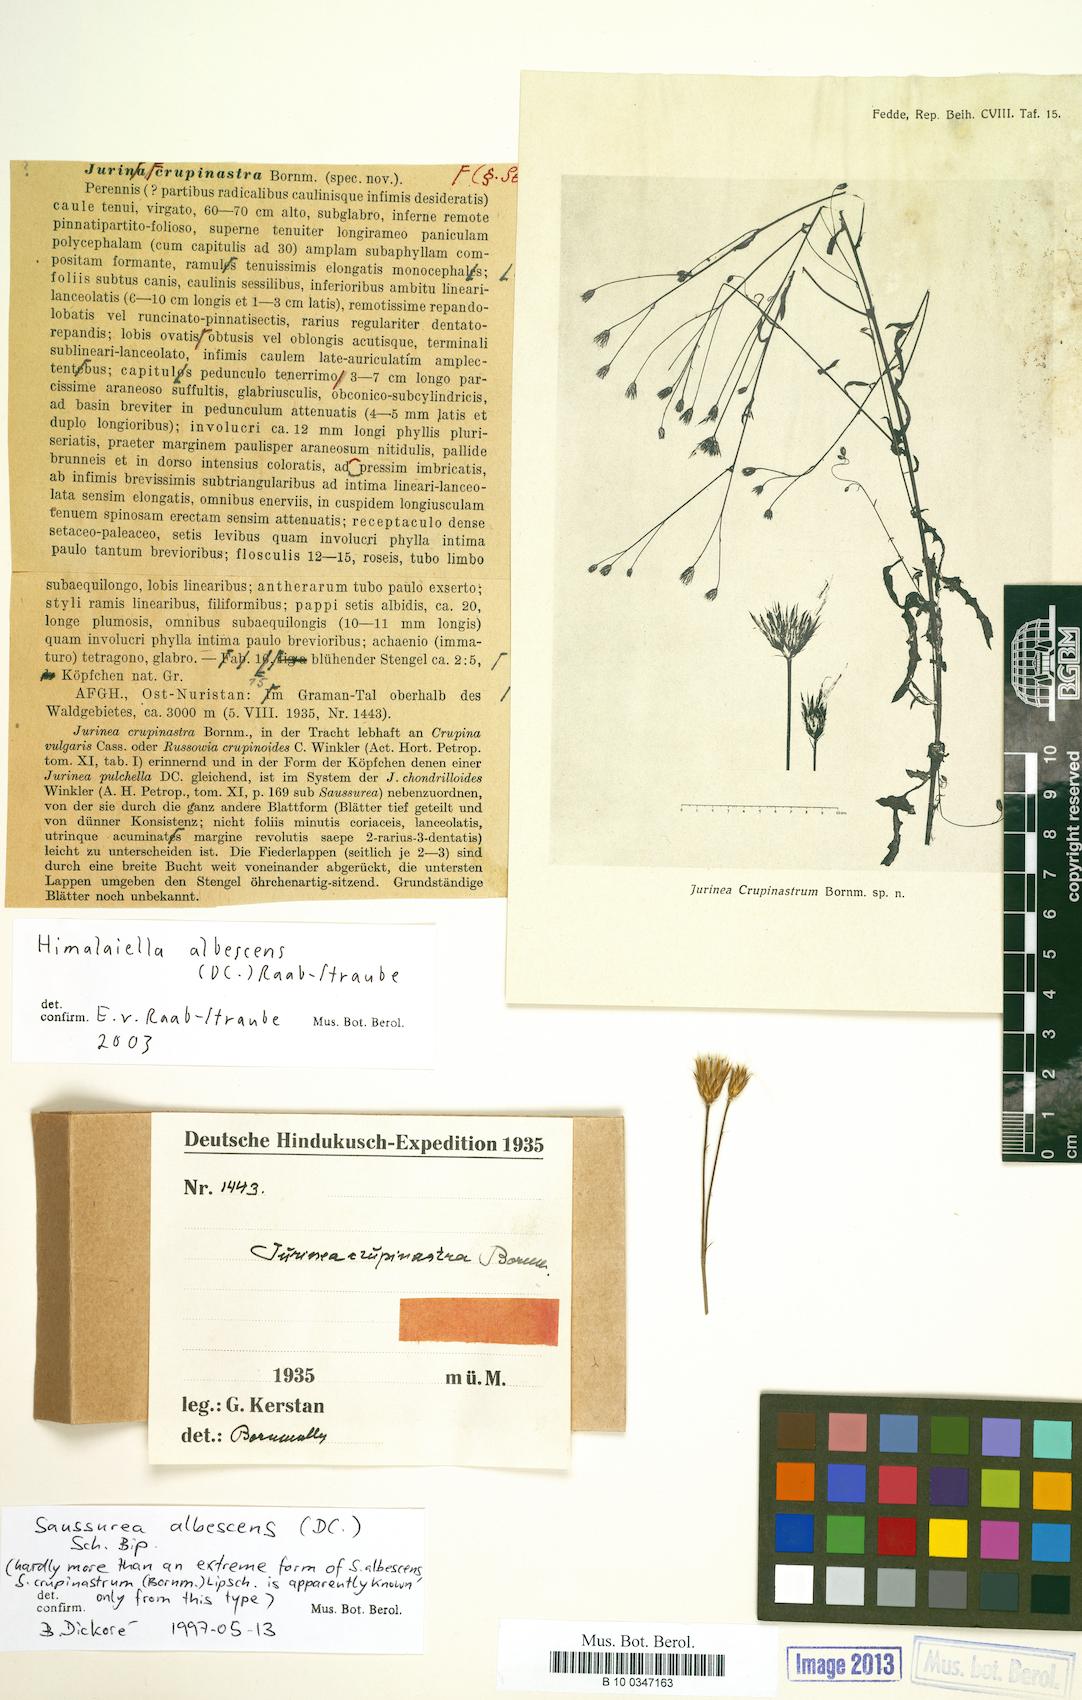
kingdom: Plantae
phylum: Tracheophyta
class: Magnoliopsida
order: Asterales
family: Asteraceae
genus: Jurinea
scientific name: Jurinea albescens
